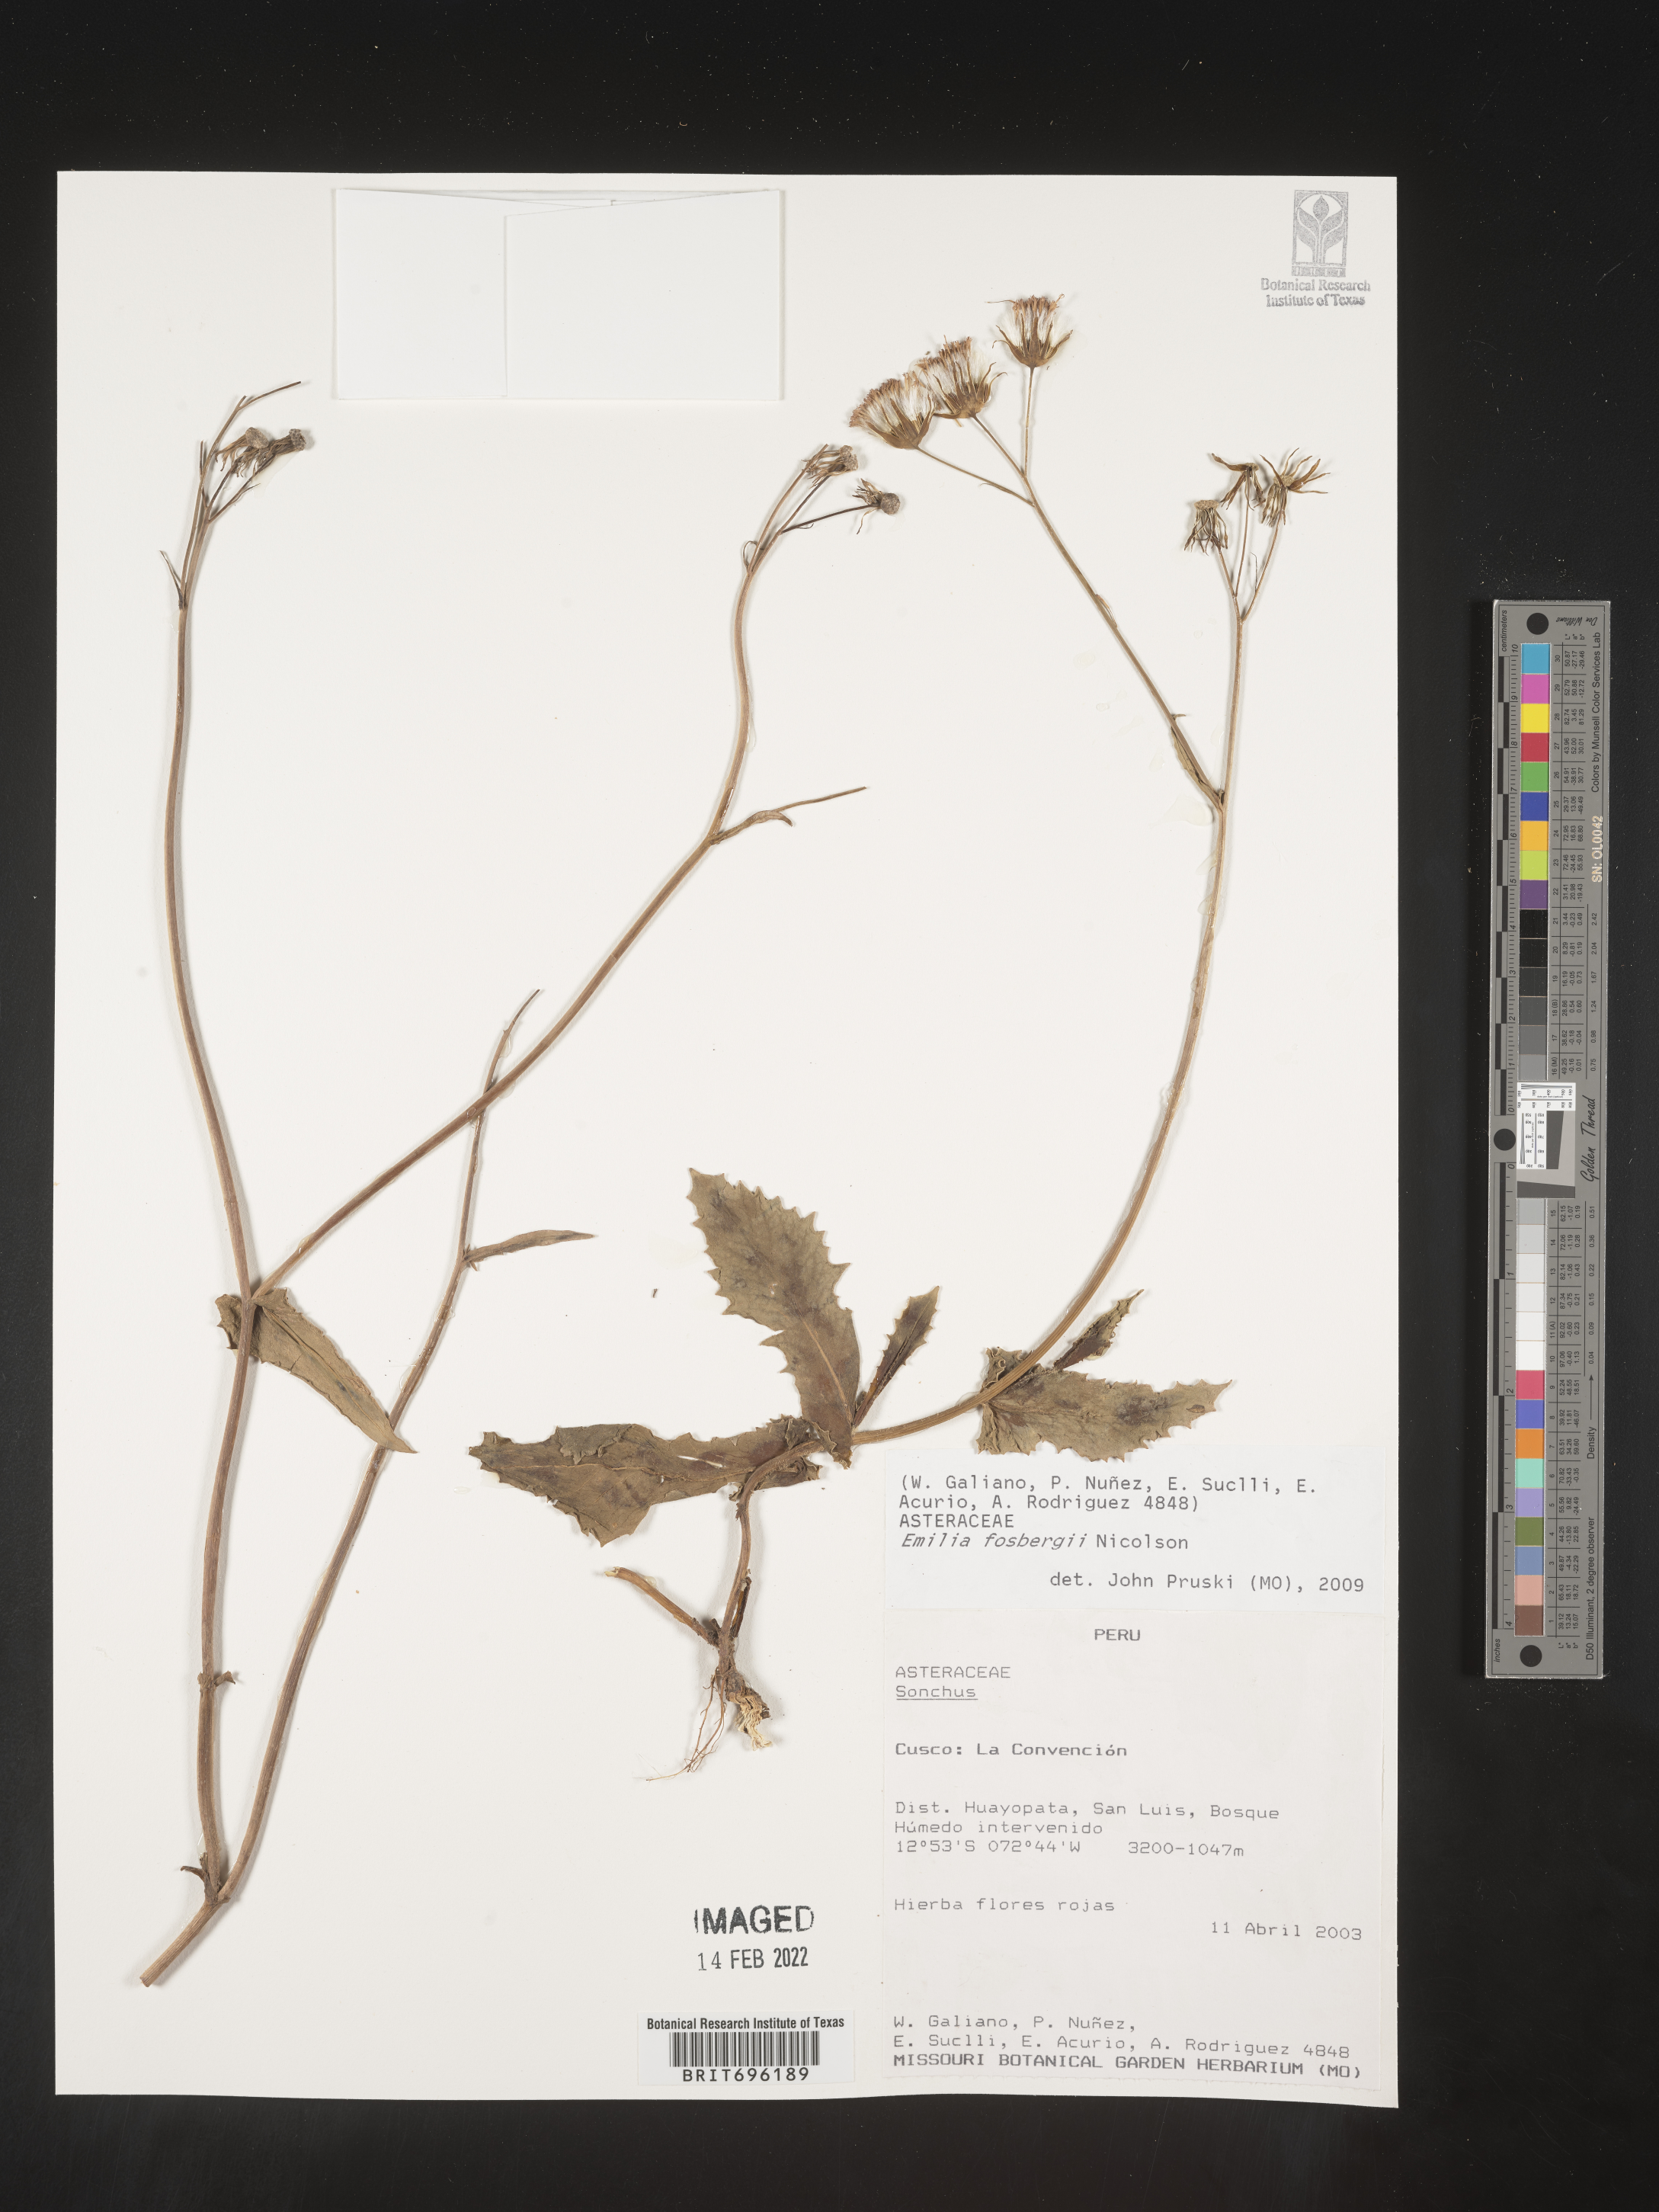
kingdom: Plantae
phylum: Tracheophyta
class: Magnoliopsida
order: Asterales
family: Asteraceae
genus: Emilia
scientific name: Emilia
